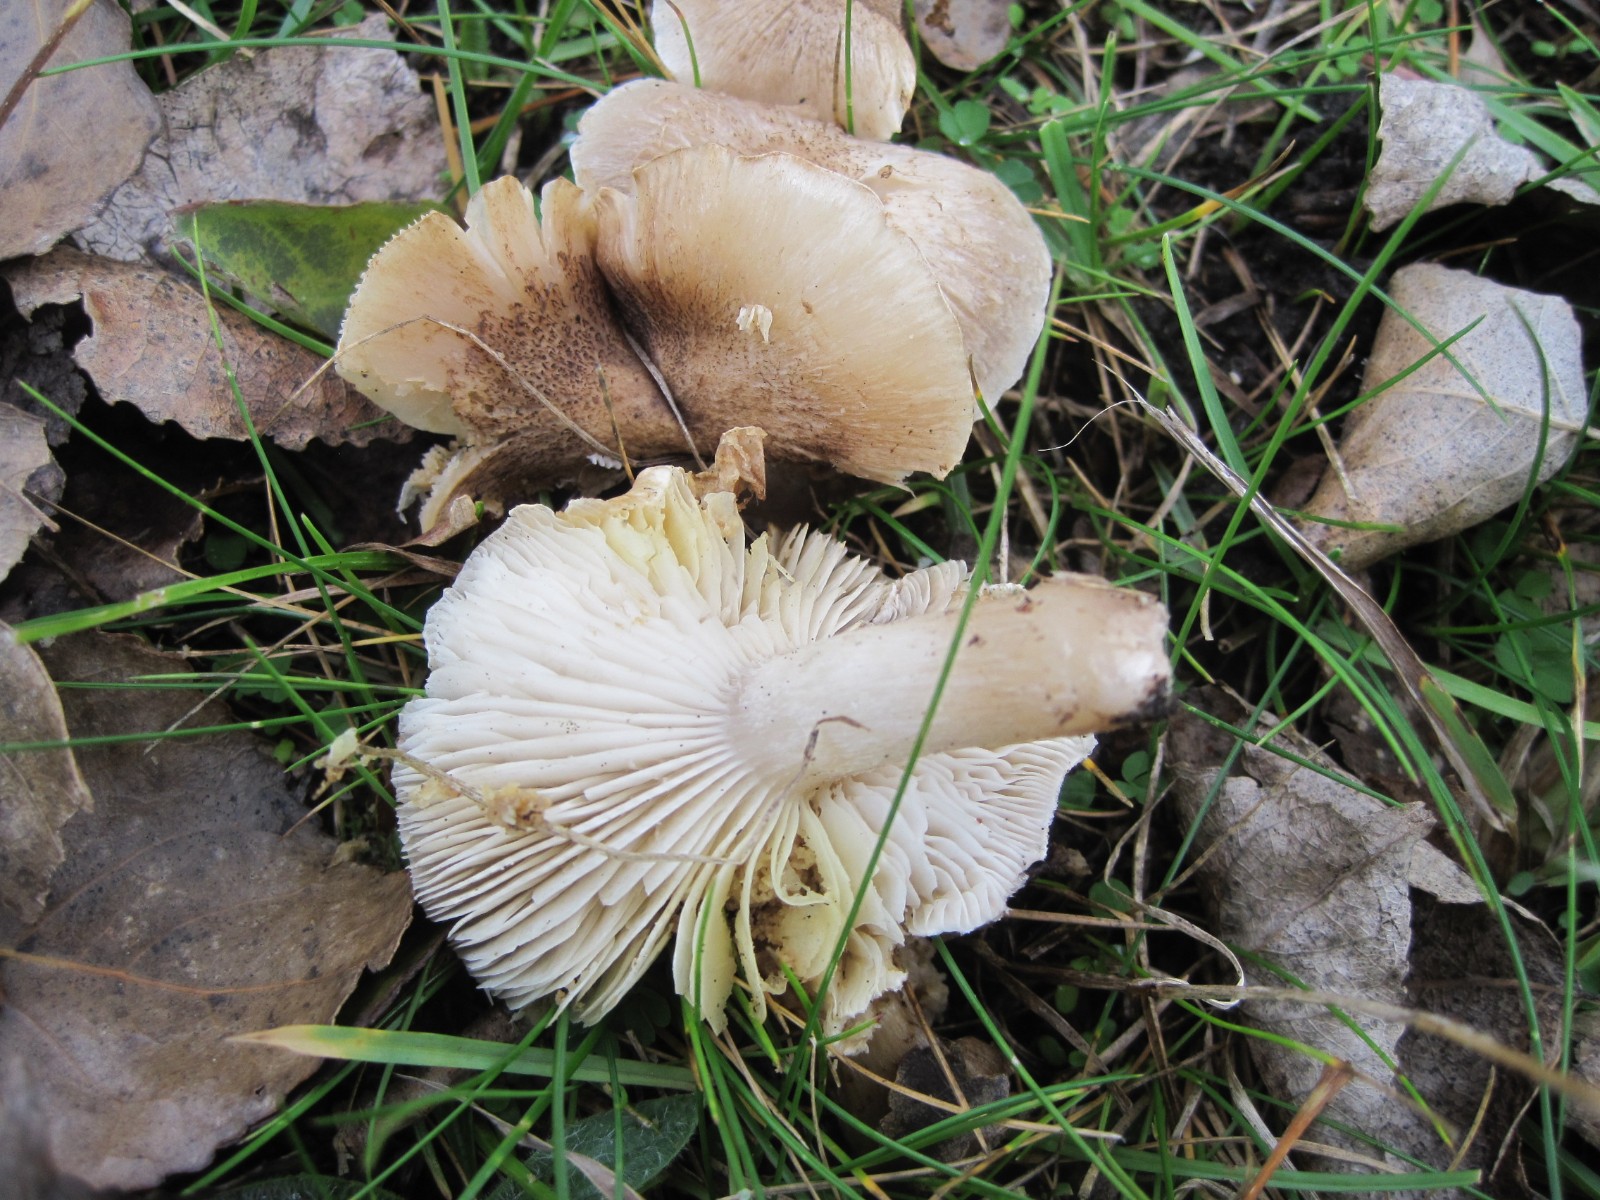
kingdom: Fungi
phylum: Basidiomycota
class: Agaricomycetes
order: Agaricales
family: Tricholomataceae
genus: Tricholoma
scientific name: Tricholoma scalpturatum
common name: gulplettet ridderhat
